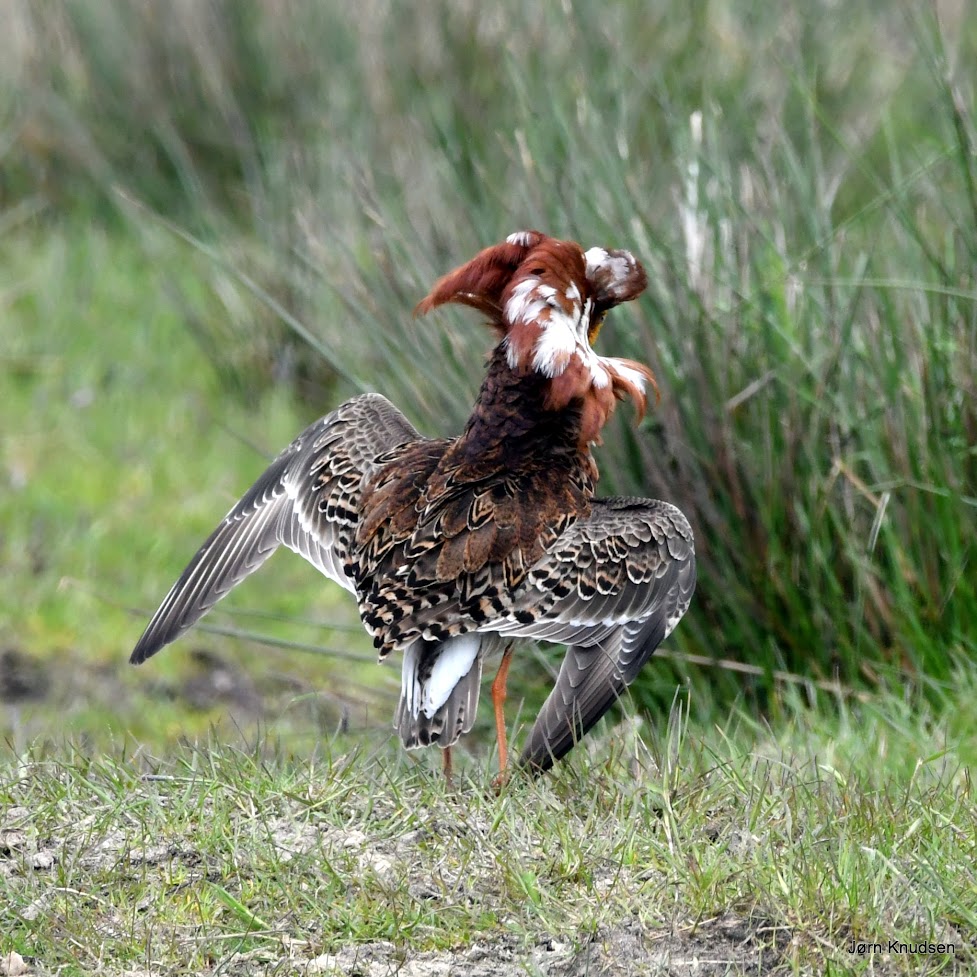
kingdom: Animalia
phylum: Chordata
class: Aves
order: Charadriiformes
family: Scolopacidae
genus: Calidris
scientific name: Calidris pugnax
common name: Brushane
